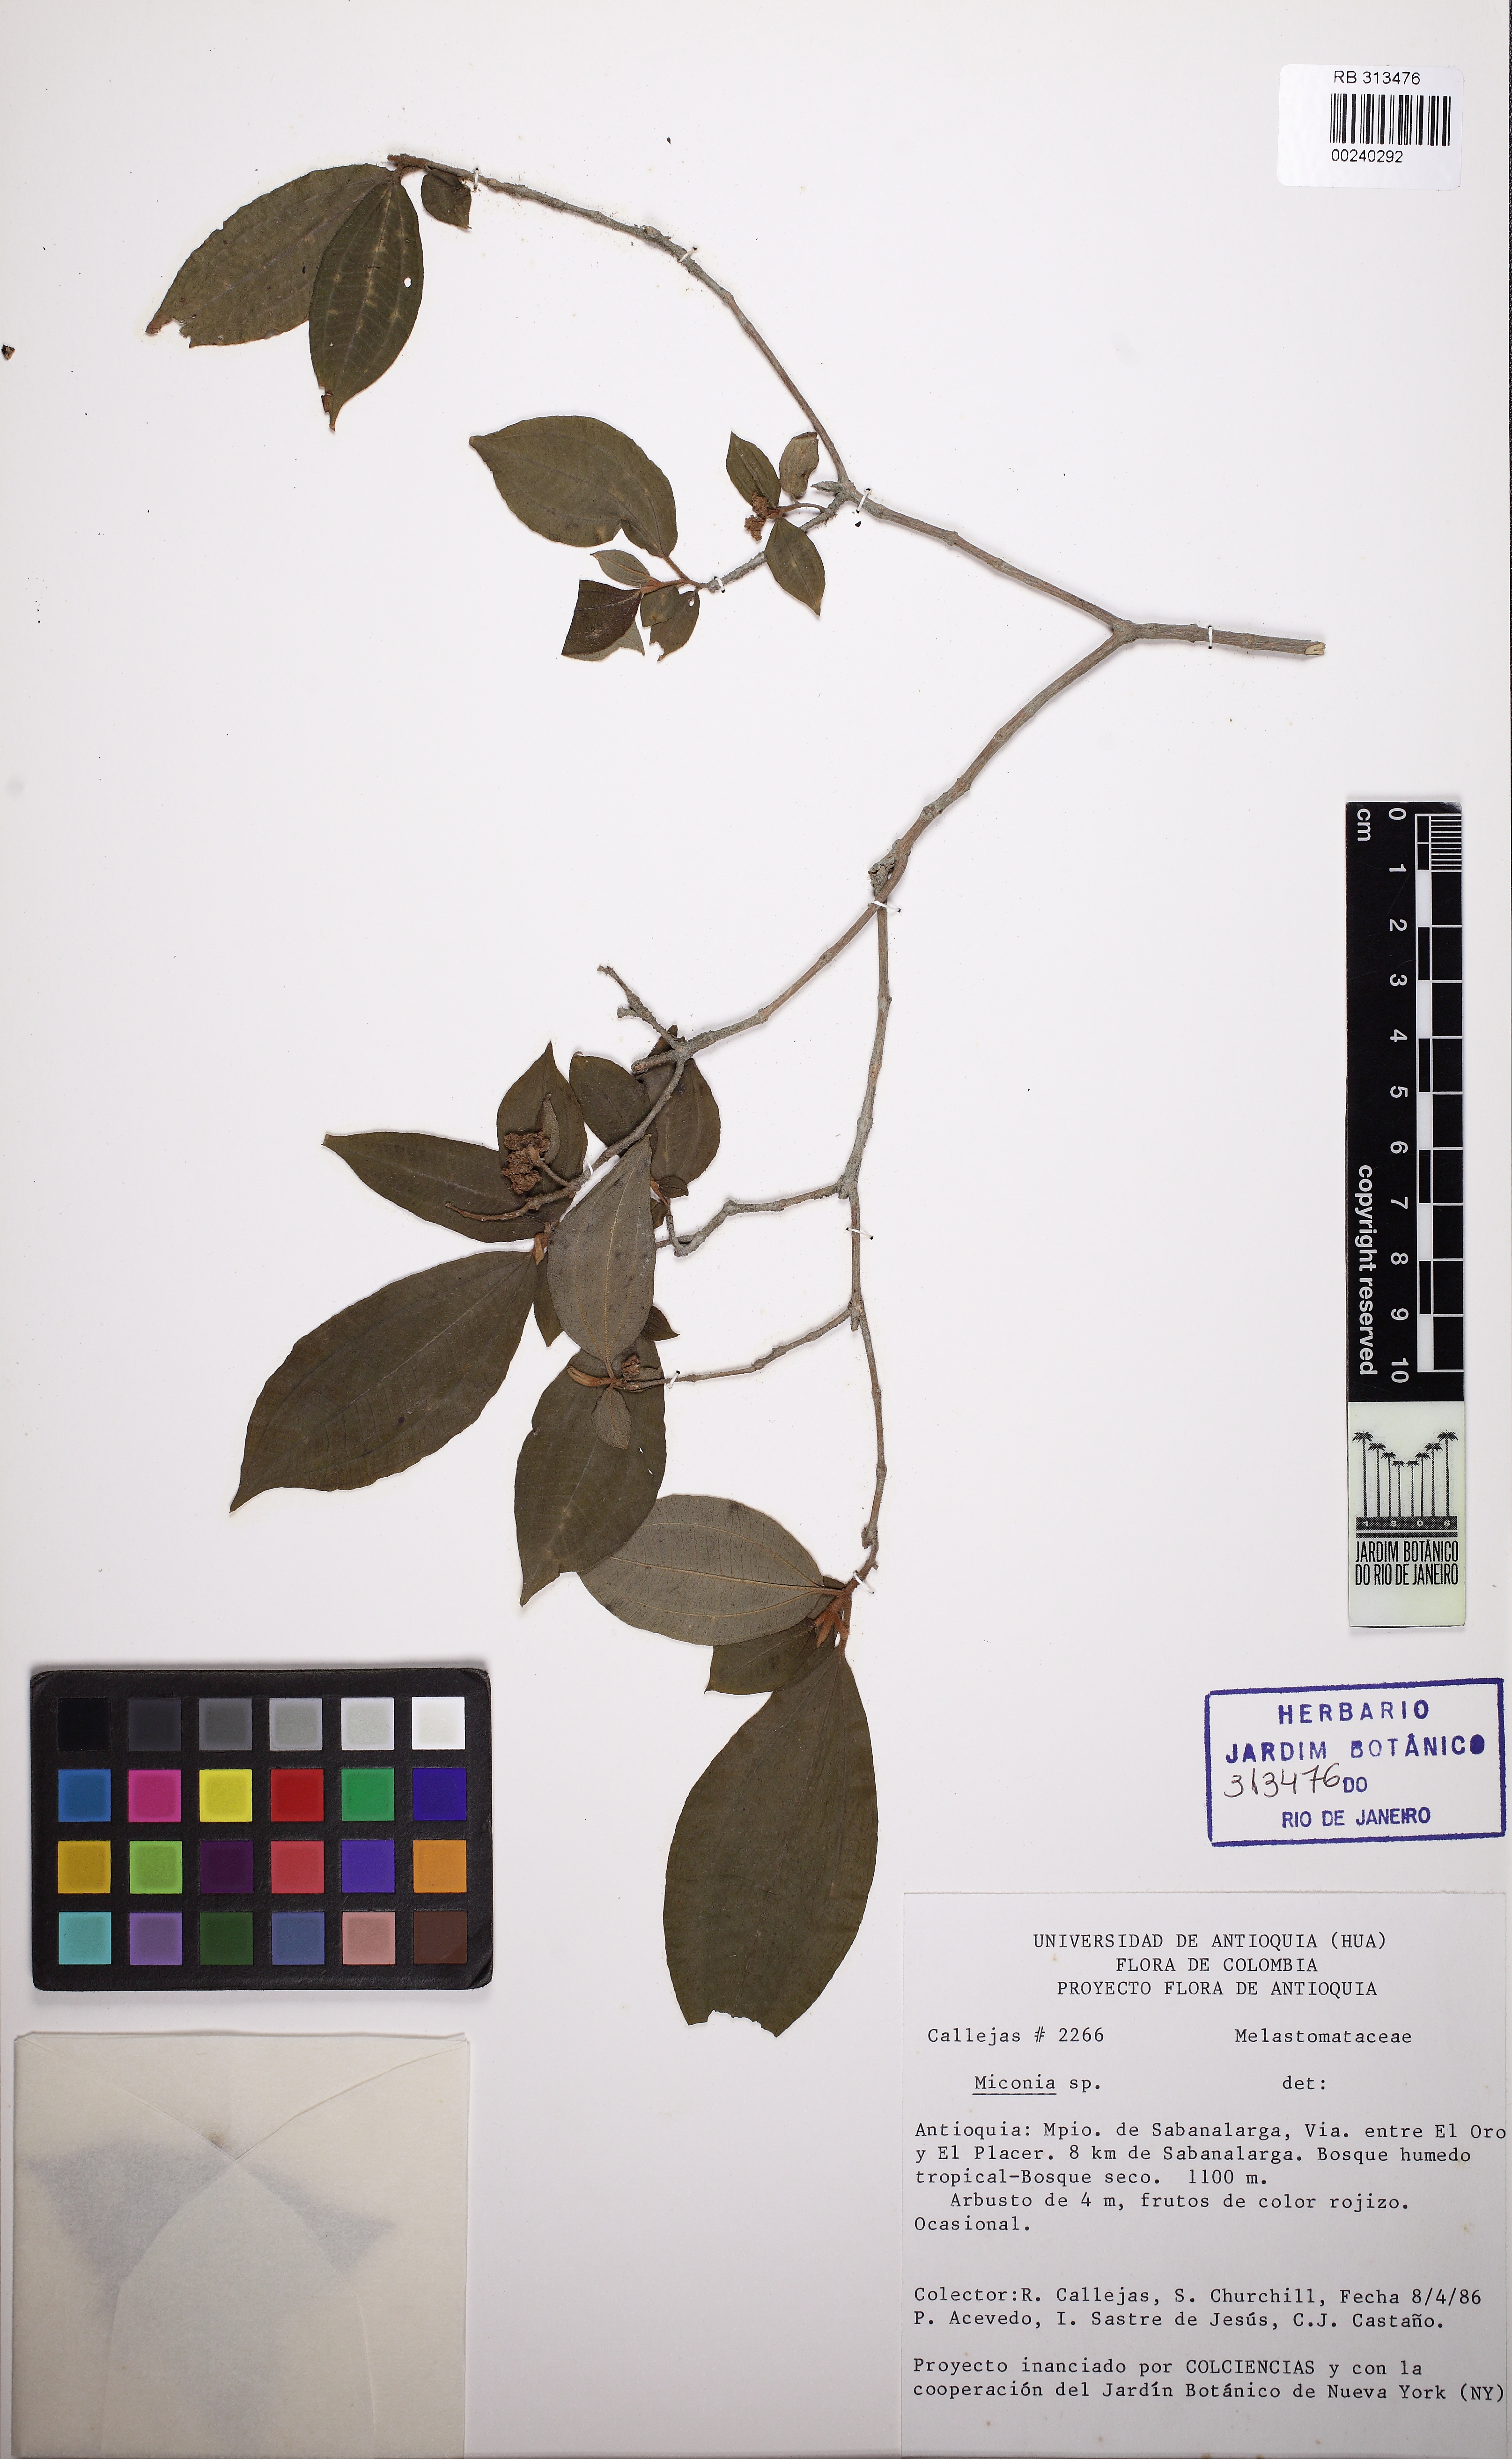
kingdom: Plantae
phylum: Tracheophyta
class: Magnoliopsida
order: Myrtales
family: Melastomataceae
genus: Miconia
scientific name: Miconia
